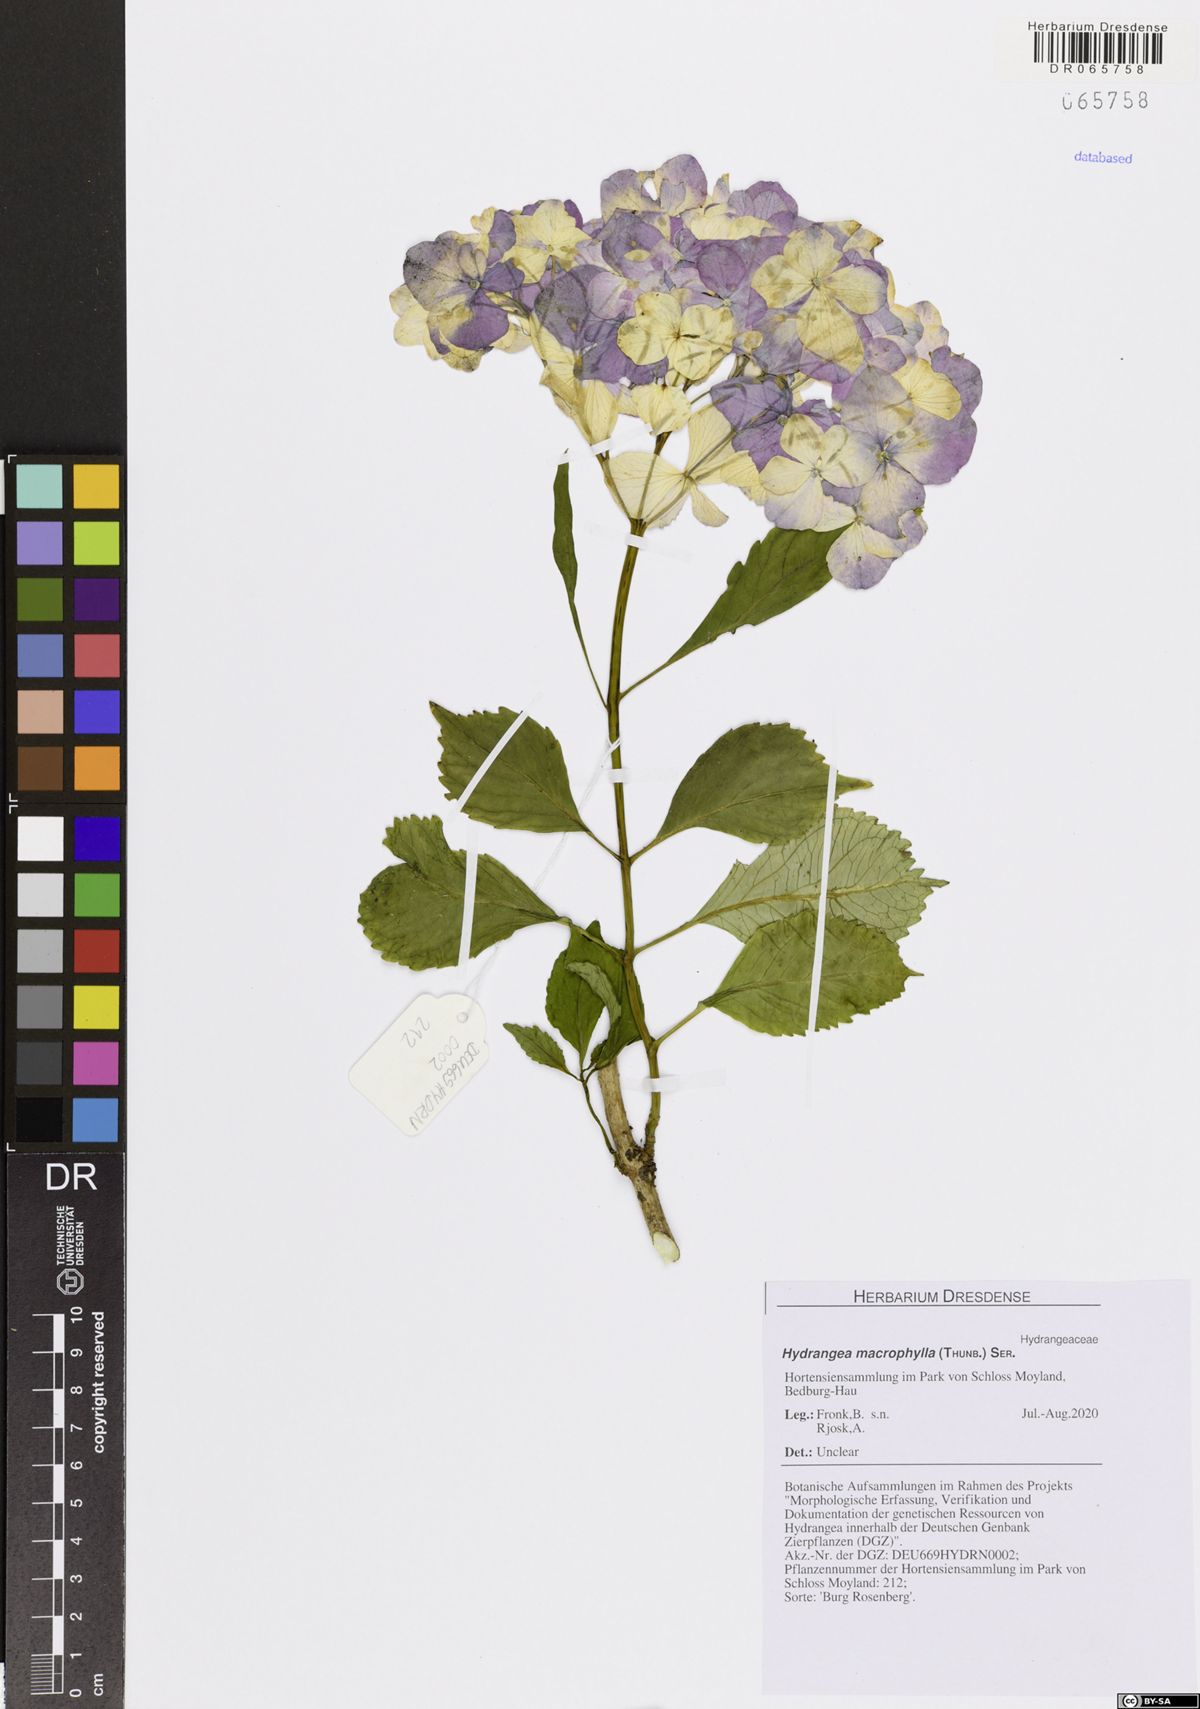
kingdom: Plantae
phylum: Tracheophyta
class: Magnoliopsida
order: Cornales
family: Hydrangeaceae
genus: Hydrangea
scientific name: Hydrangea macrophylla
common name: Hydrangea
